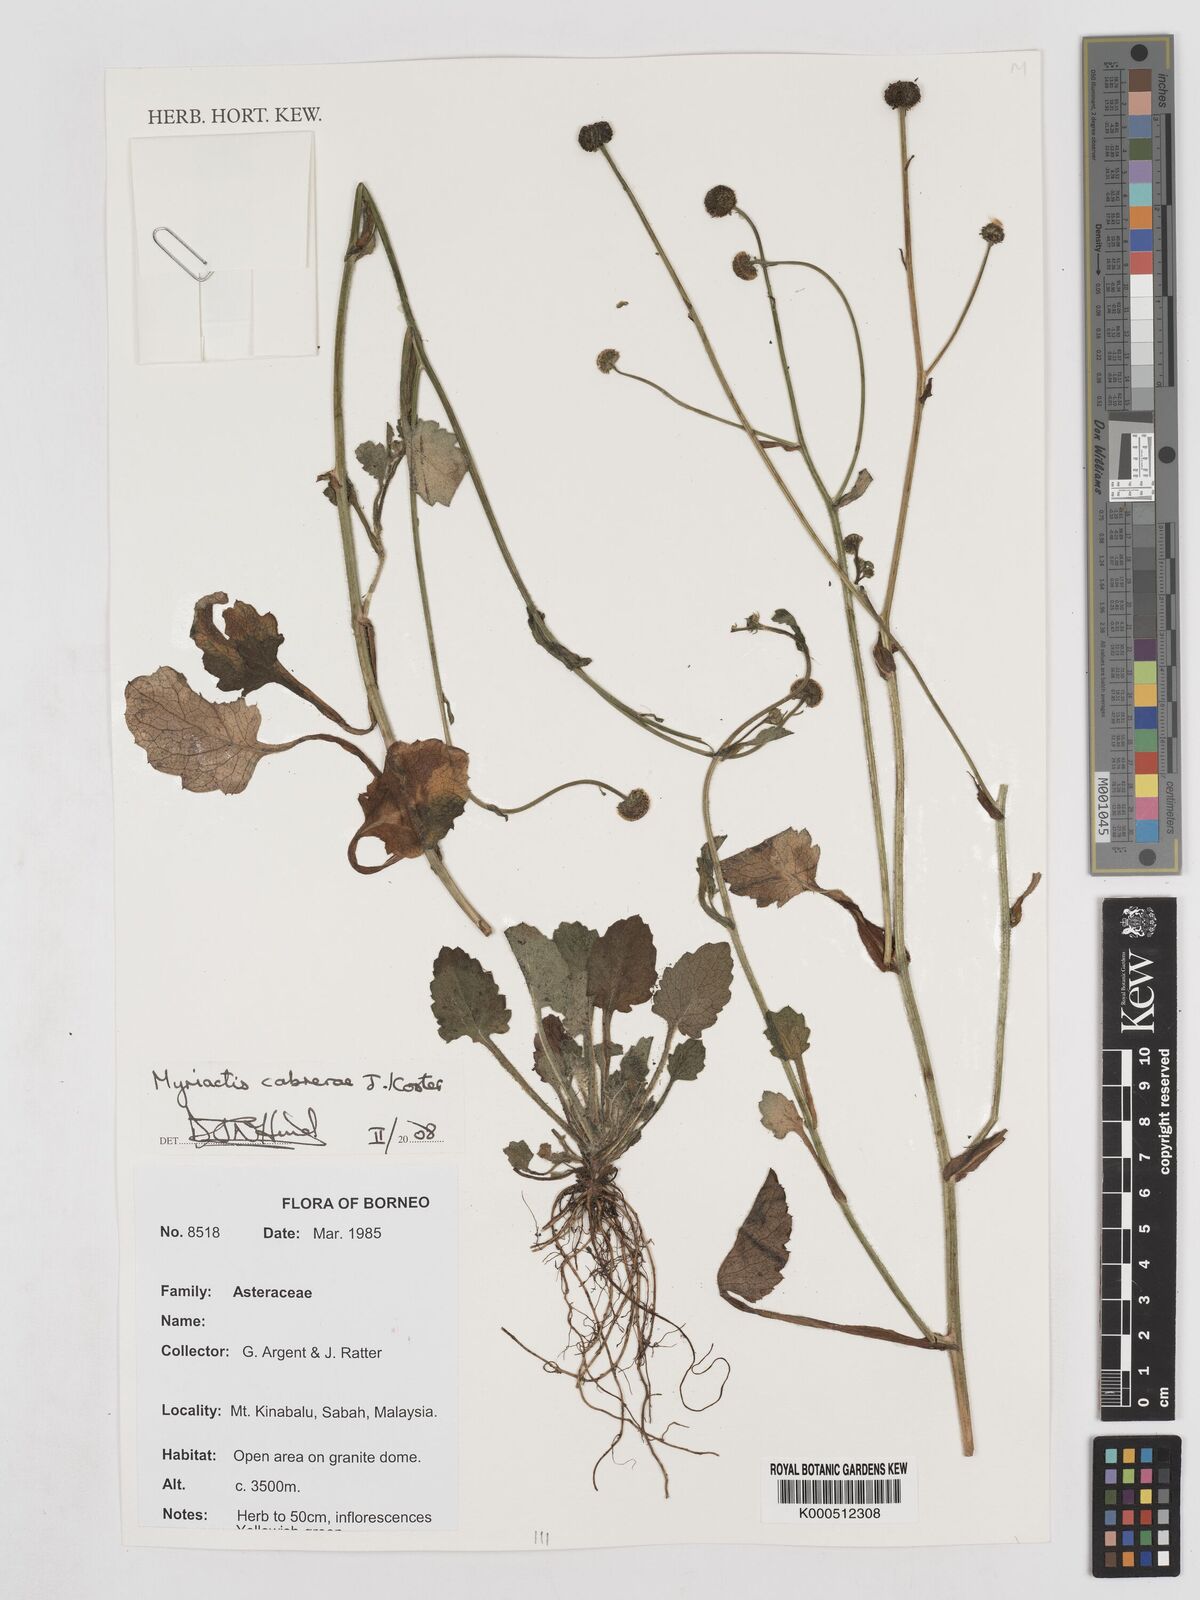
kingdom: Plantae
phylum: Tracheophyta
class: Magnoliopsida
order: Asterales
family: Asteraceae
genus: Myriactis
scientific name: Myriactis cabrerae
